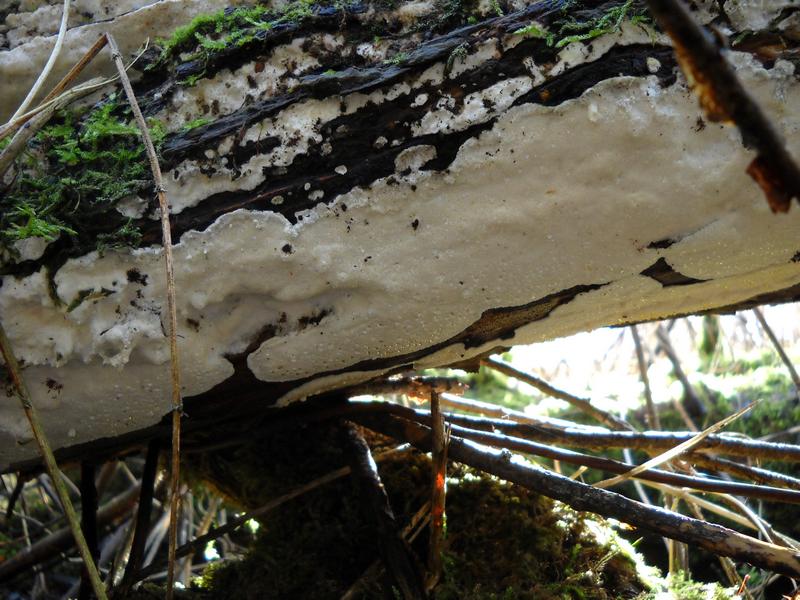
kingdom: Fungi
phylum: Basidiomycota
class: Agaricomycetes
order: Hymenochaetales
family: Oxyporaceae
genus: Oxyporus
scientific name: Oxyporus obducens
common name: skorpe-trylleporesvamp
